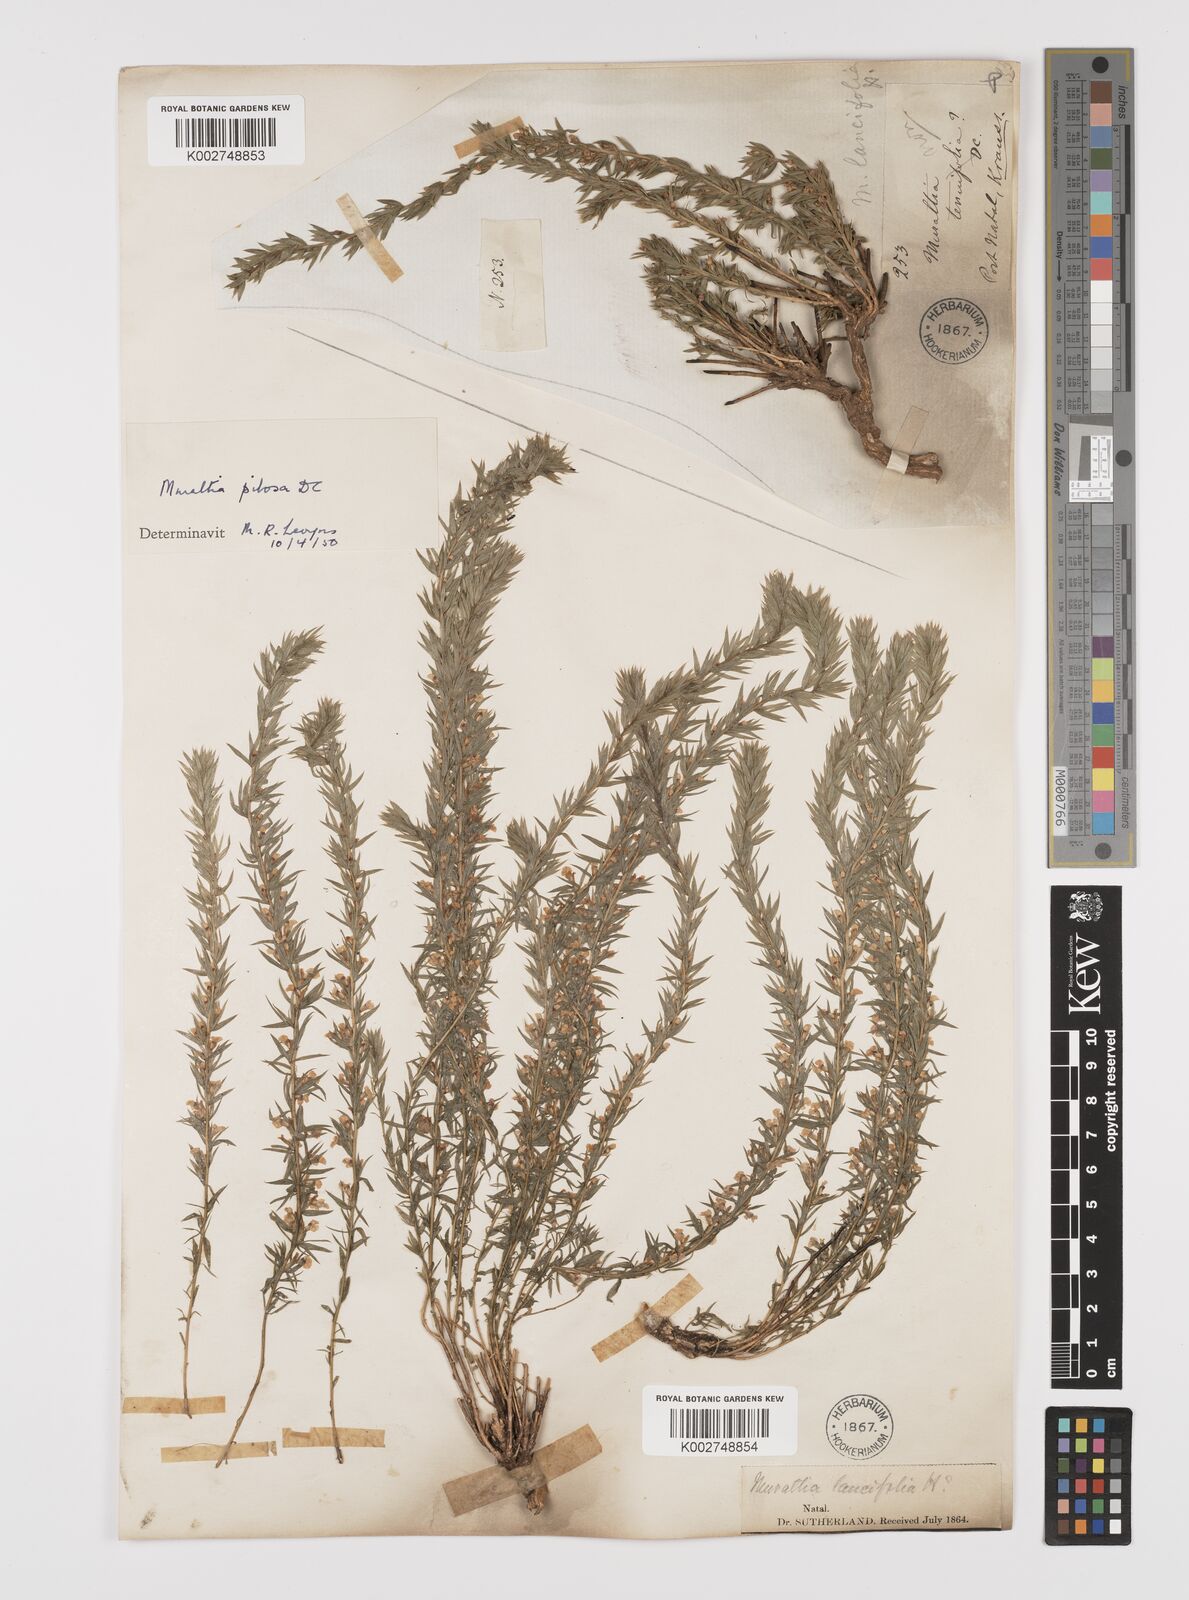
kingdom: Plantae
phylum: Tracheophyta
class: Magnoliopsida
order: Fabales
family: Polygalaceae
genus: Muraltia
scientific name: Muraltia lancifolia
